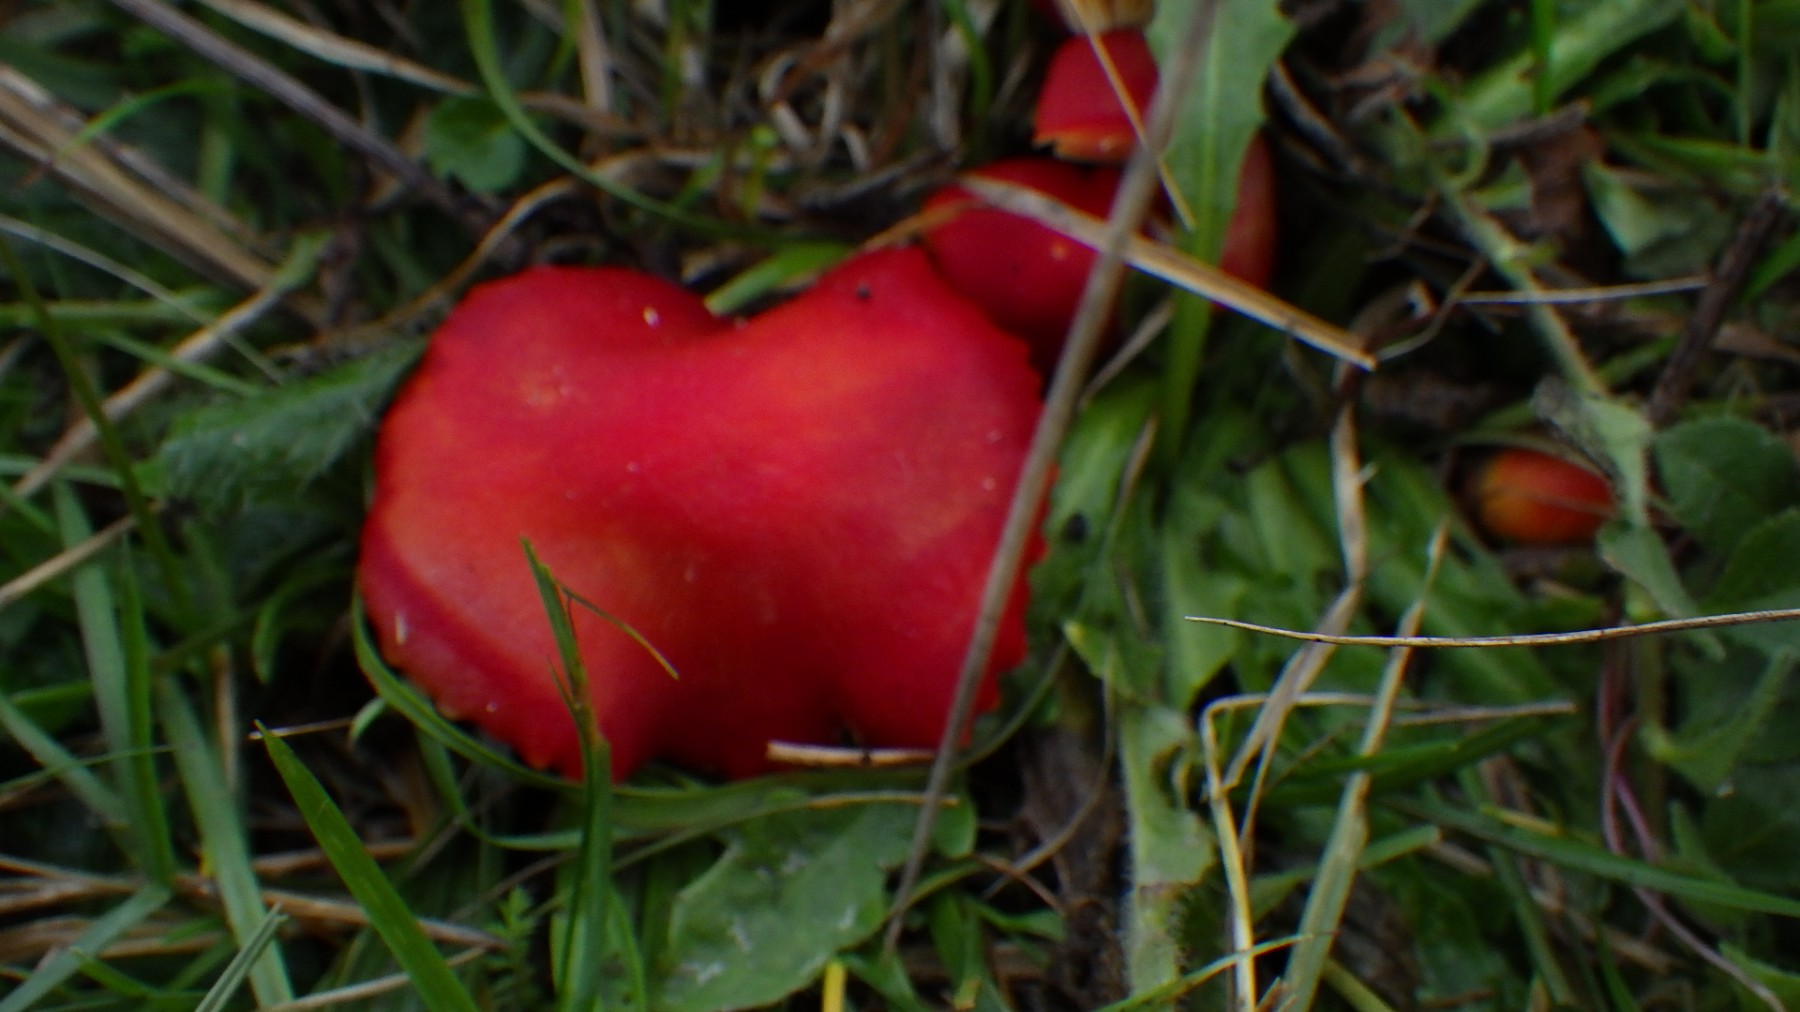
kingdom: Fungi
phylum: Basidiomycota
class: Agaricomycetes
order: Agaricales
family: Hygrophoraceae
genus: Hygrocybe
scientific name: Hygrocybe coccinea
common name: cinnober-vokshat
